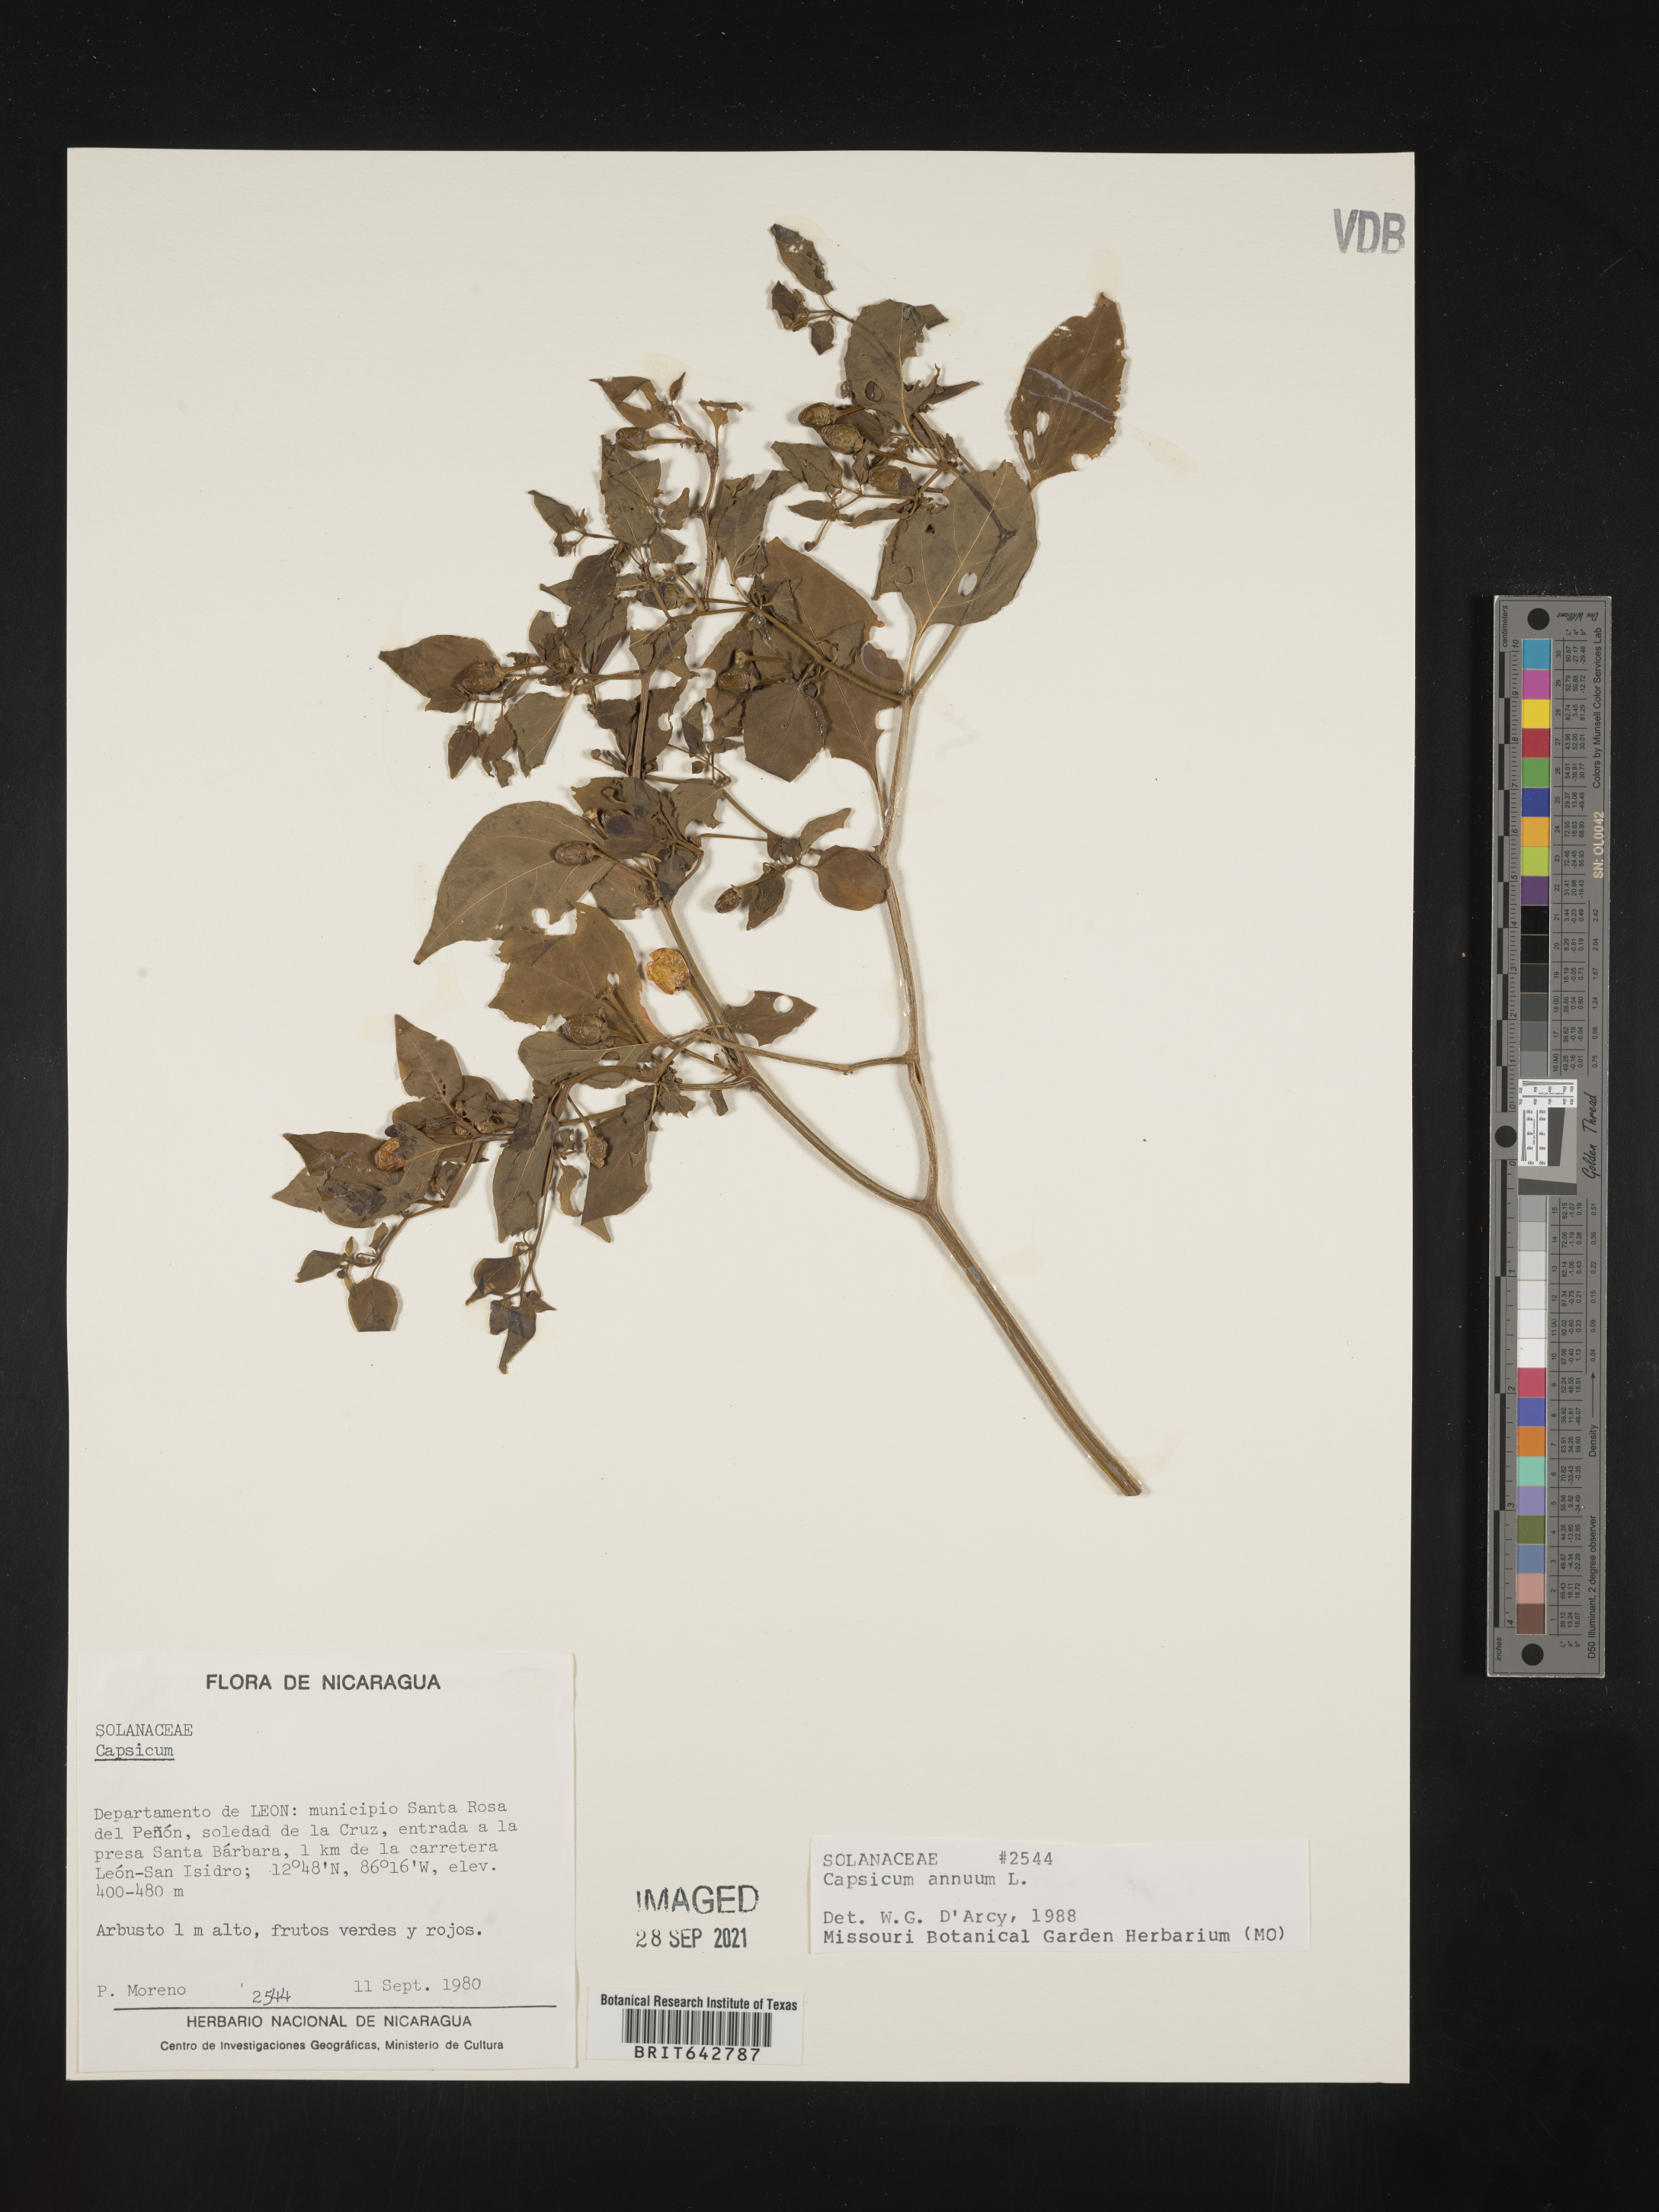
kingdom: Plantae
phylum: Tracheophyta
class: Magnoliopsida
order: Solanales
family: Solanaceae
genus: Capsicum
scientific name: Capsicum
